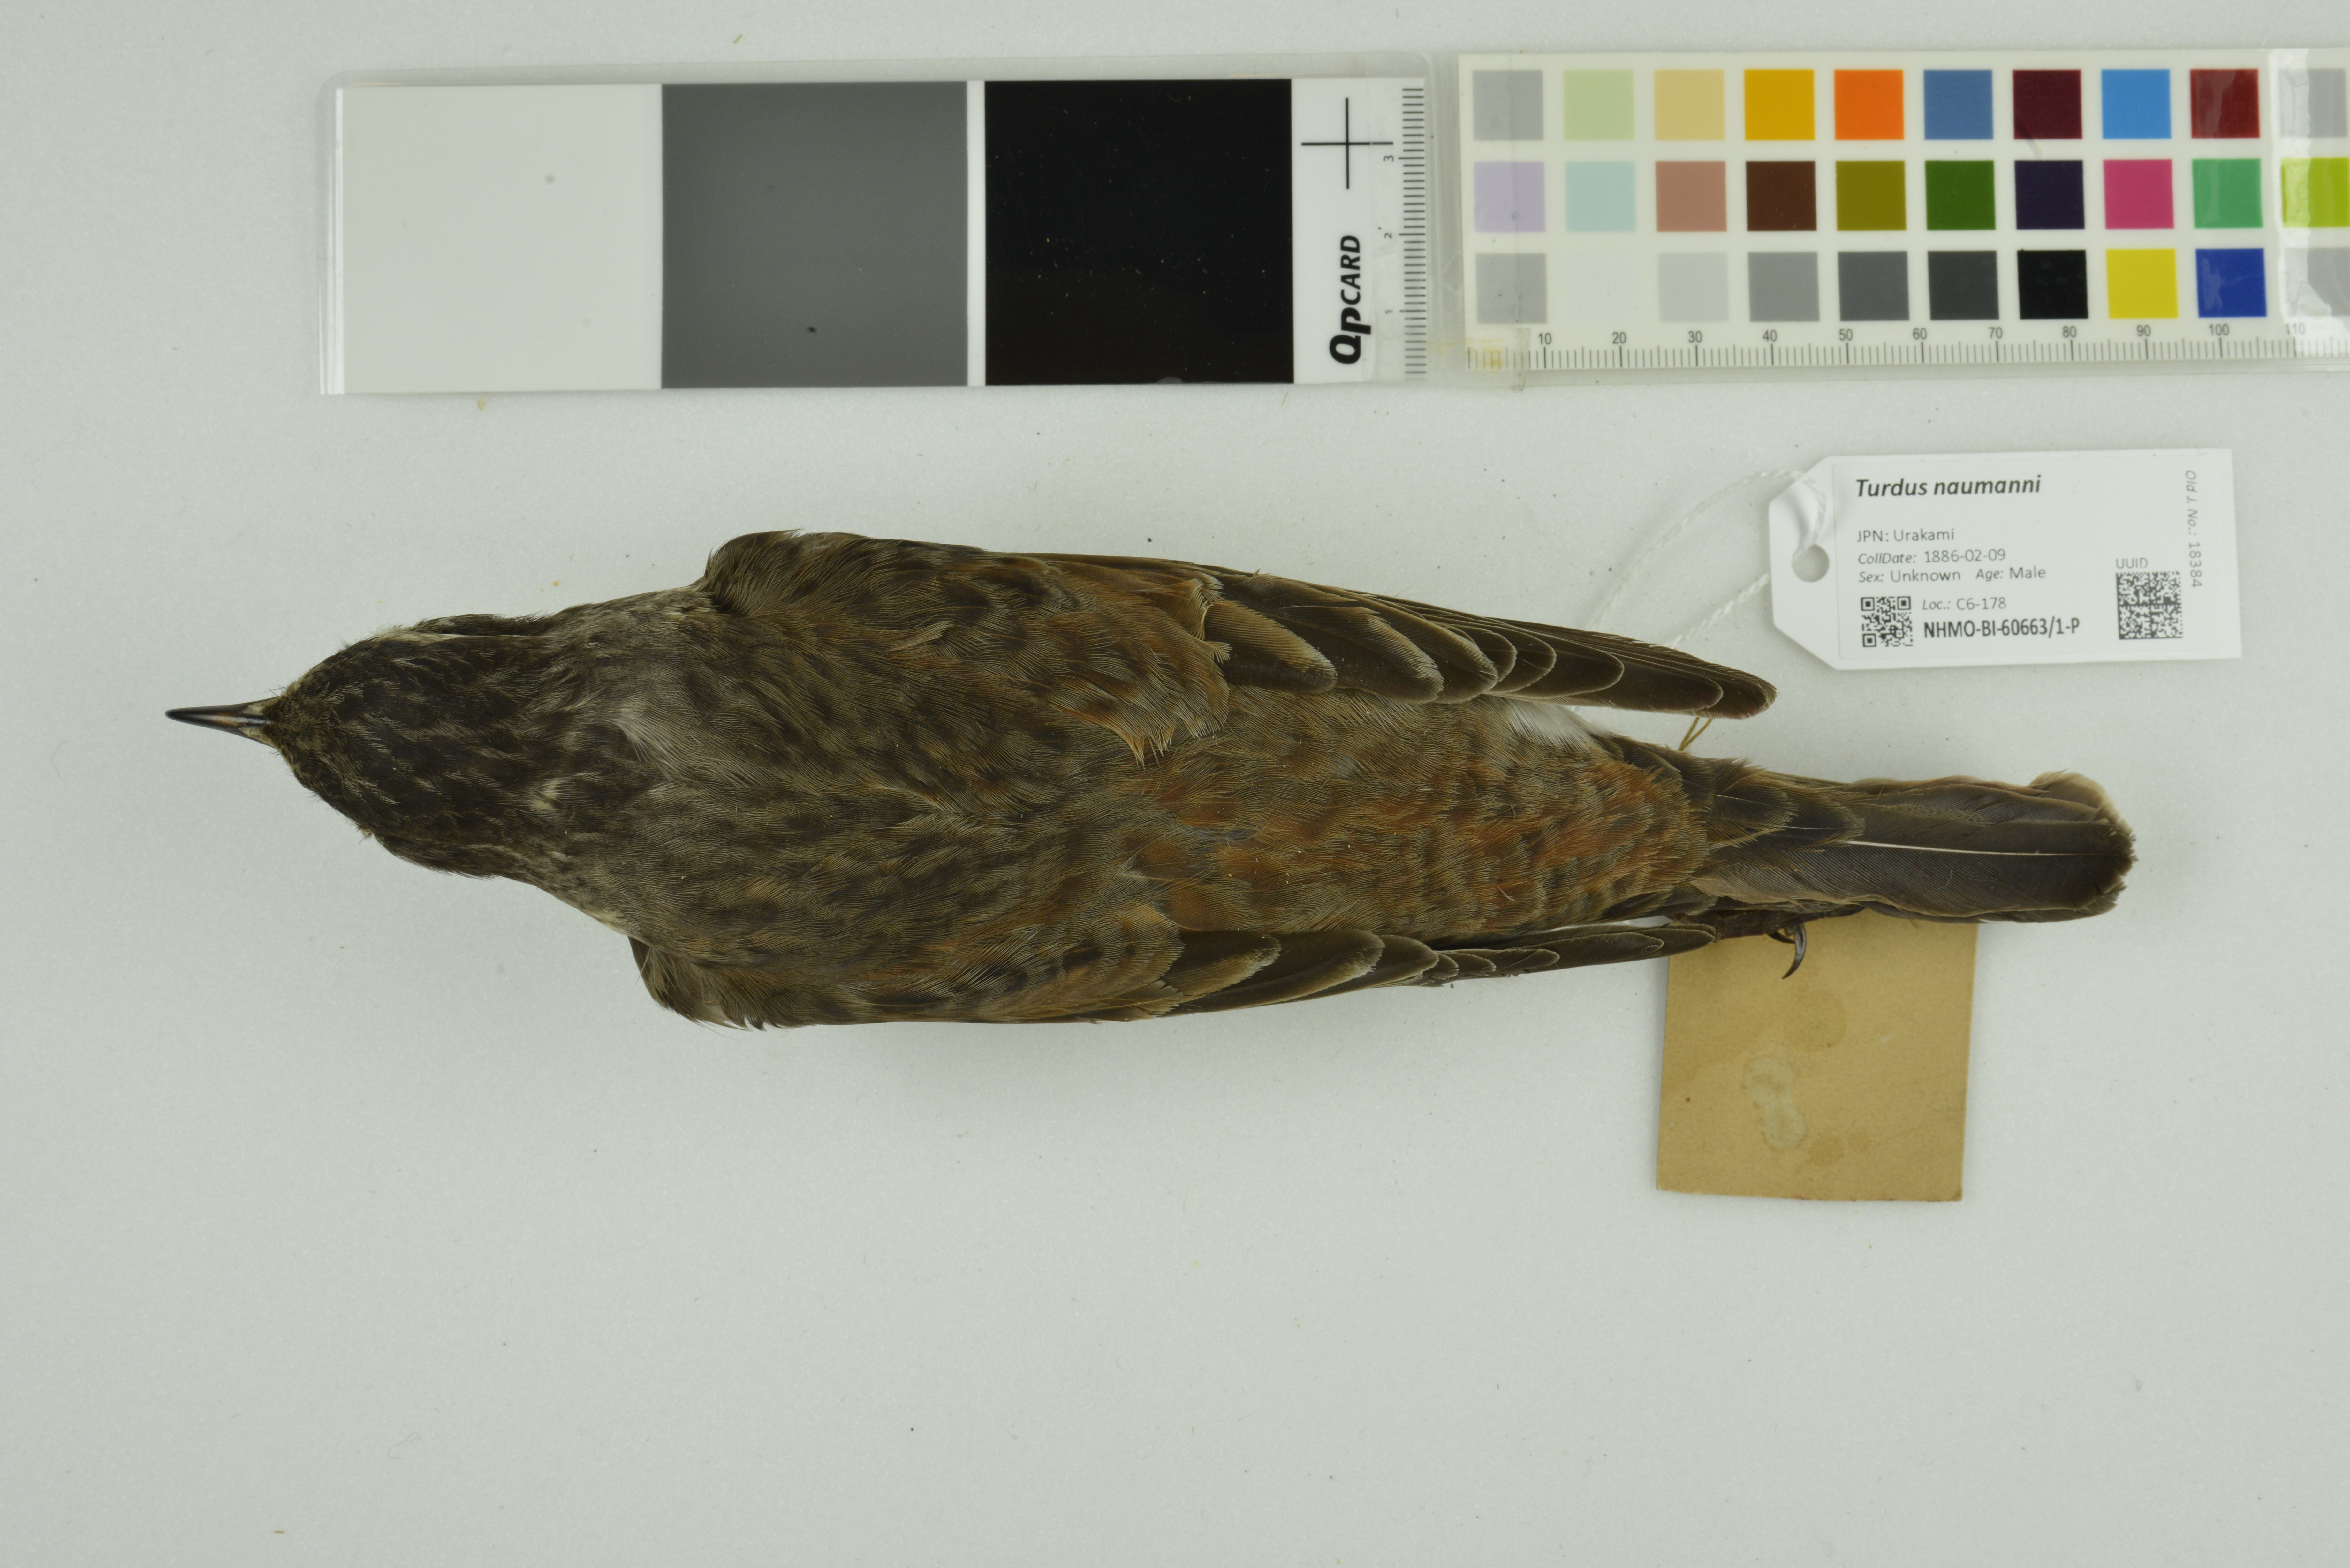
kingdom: Animalia
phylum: Chordata
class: Aves
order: Passeriformes
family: Turdidae
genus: Turdus
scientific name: Turdus naumanni
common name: Naumann's thrush
